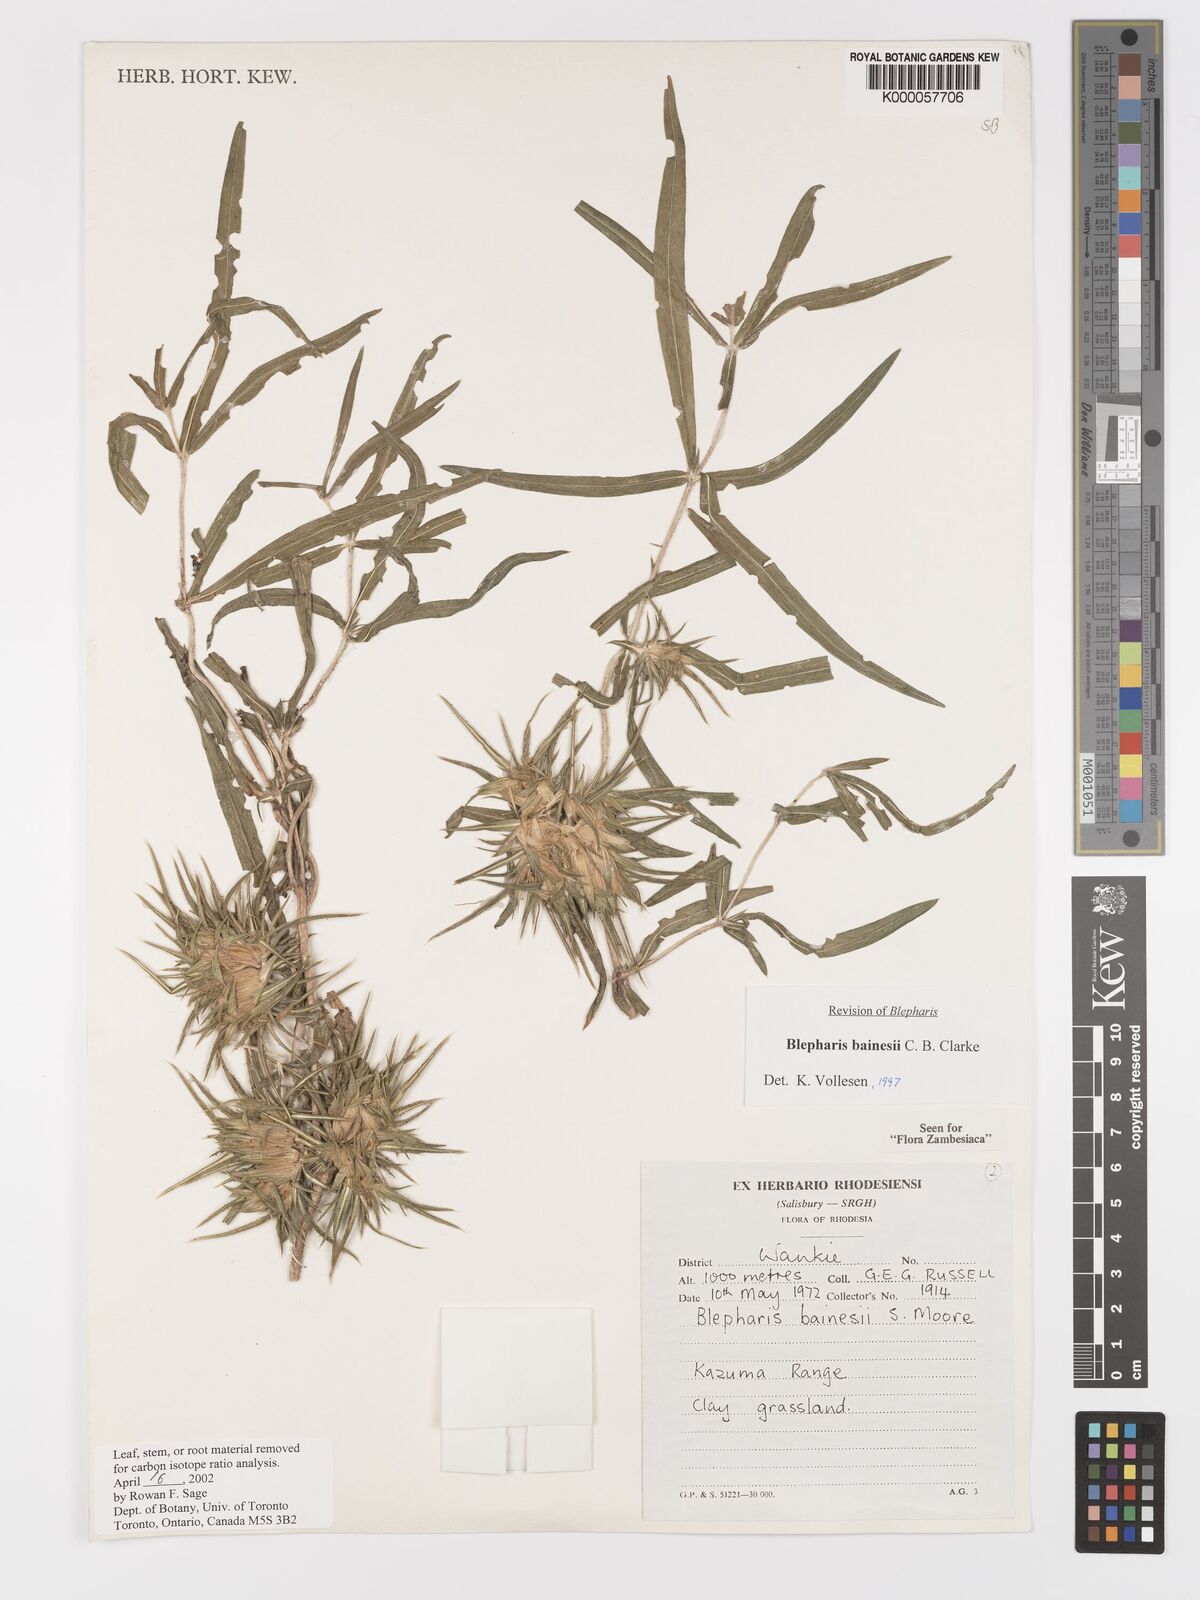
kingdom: Plantae
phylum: Tracheophyta
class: Magnoliopsida
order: Lamiales
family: Acanthaceae
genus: Blepharis
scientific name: Blepharis bainesii
